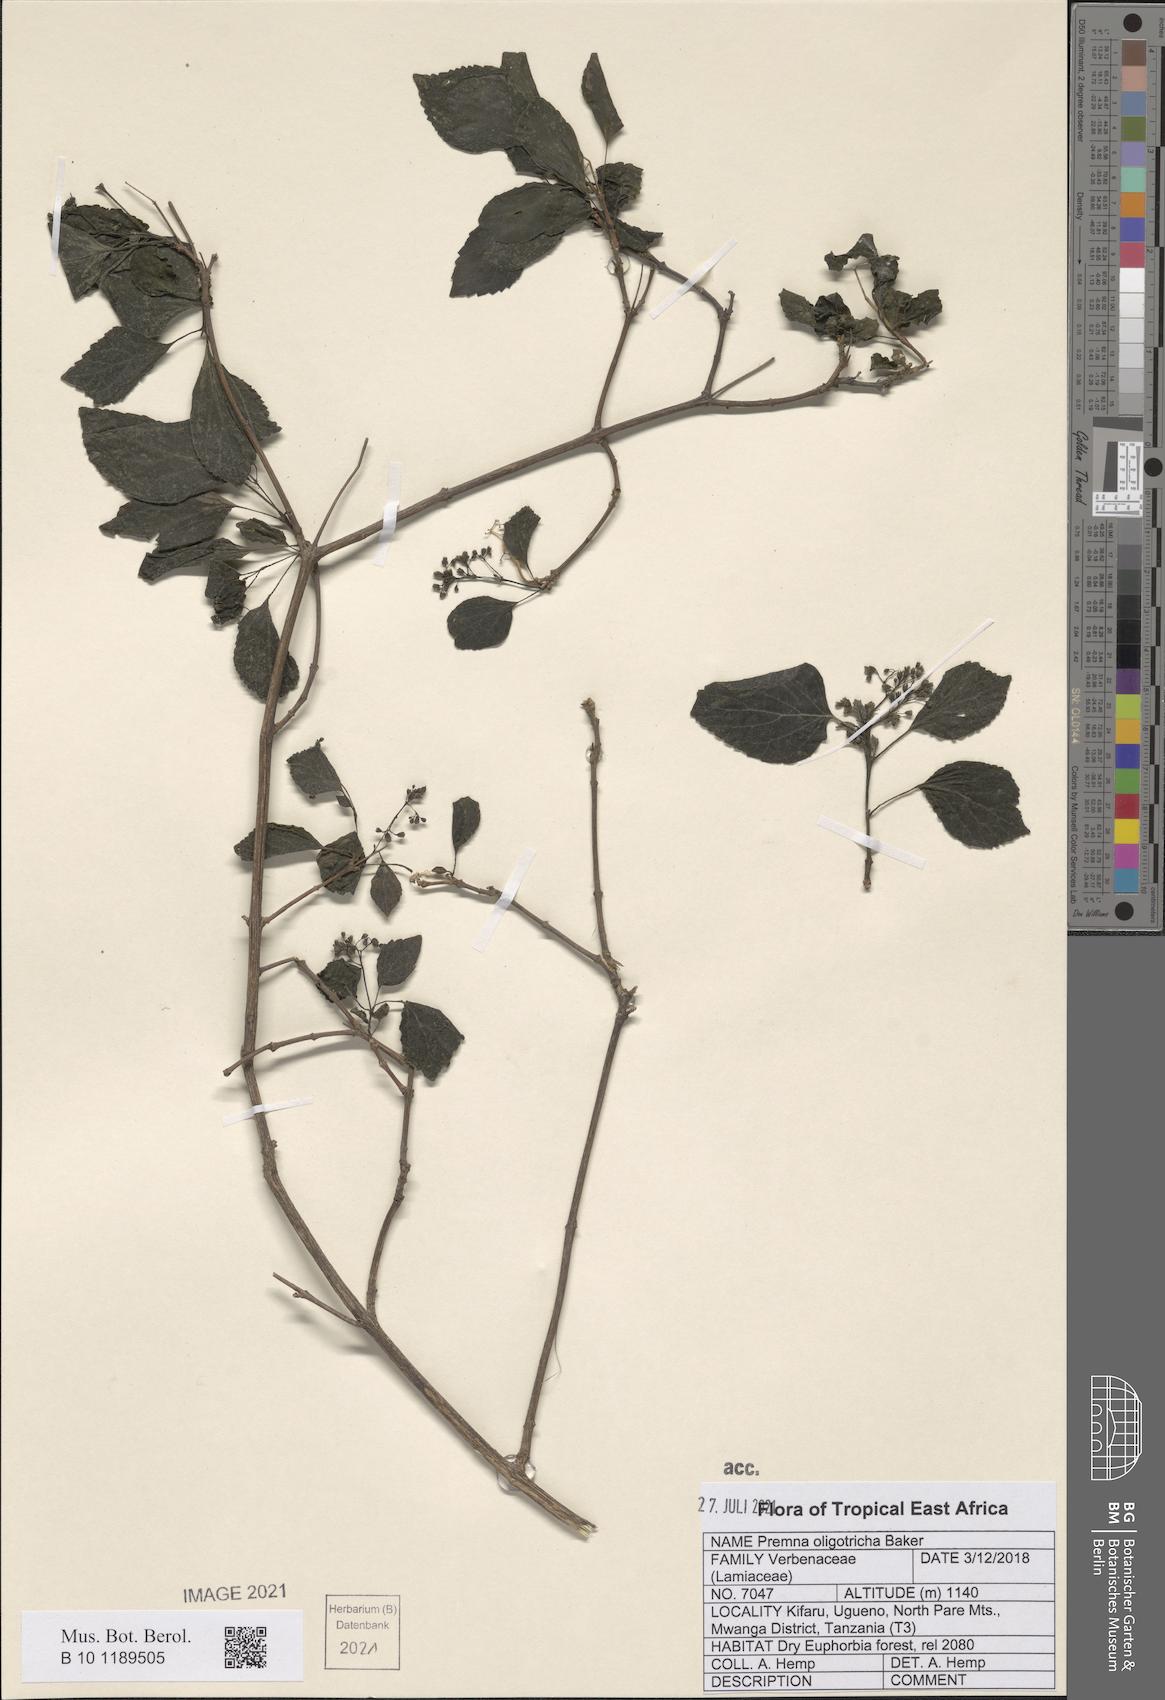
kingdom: Plantae
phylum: Tracheophyta
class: Magnoliopsida
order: Lamiales
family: Lamiaceae
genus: Premna
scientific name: Premna oligotricha
